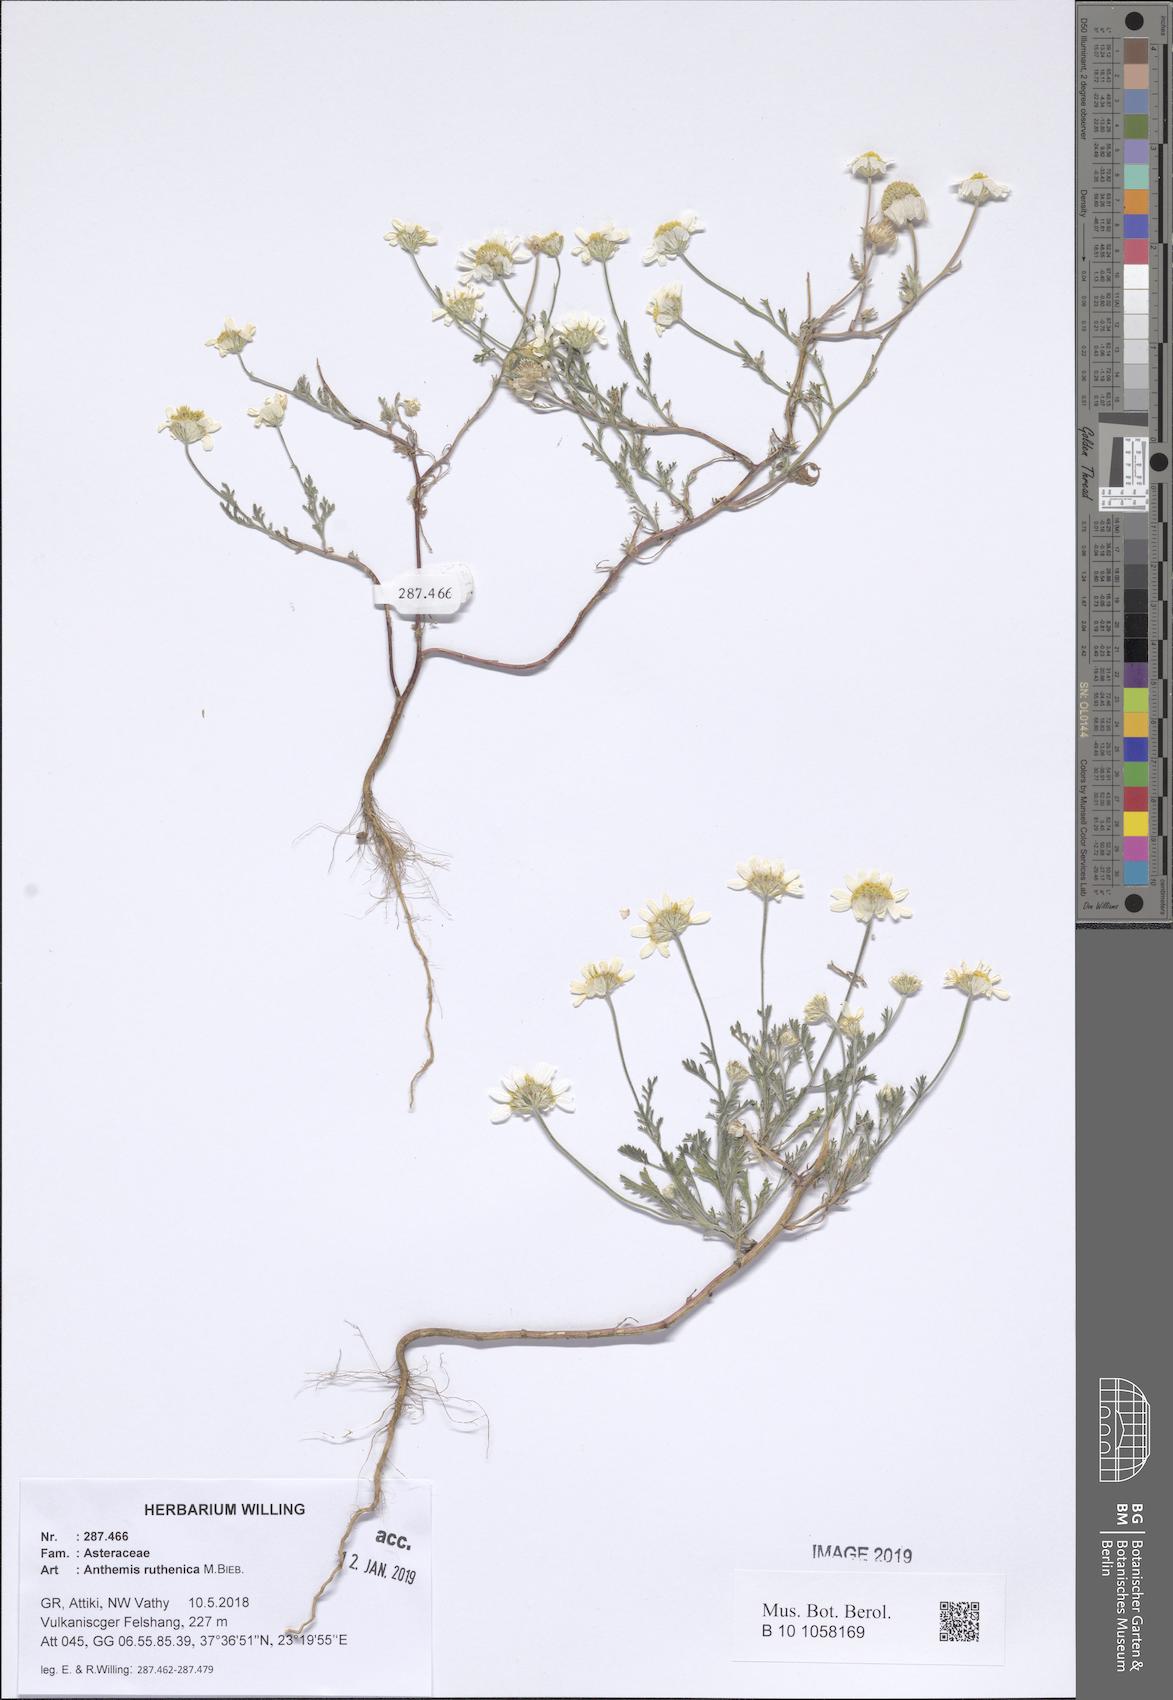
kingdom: Plantae
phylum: Tracheophyta
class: Magnoliopsida
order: Asterales
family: Asteraceae
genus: Anthemis
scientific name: Anthemis ruthenica
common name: Eastern chamomile
